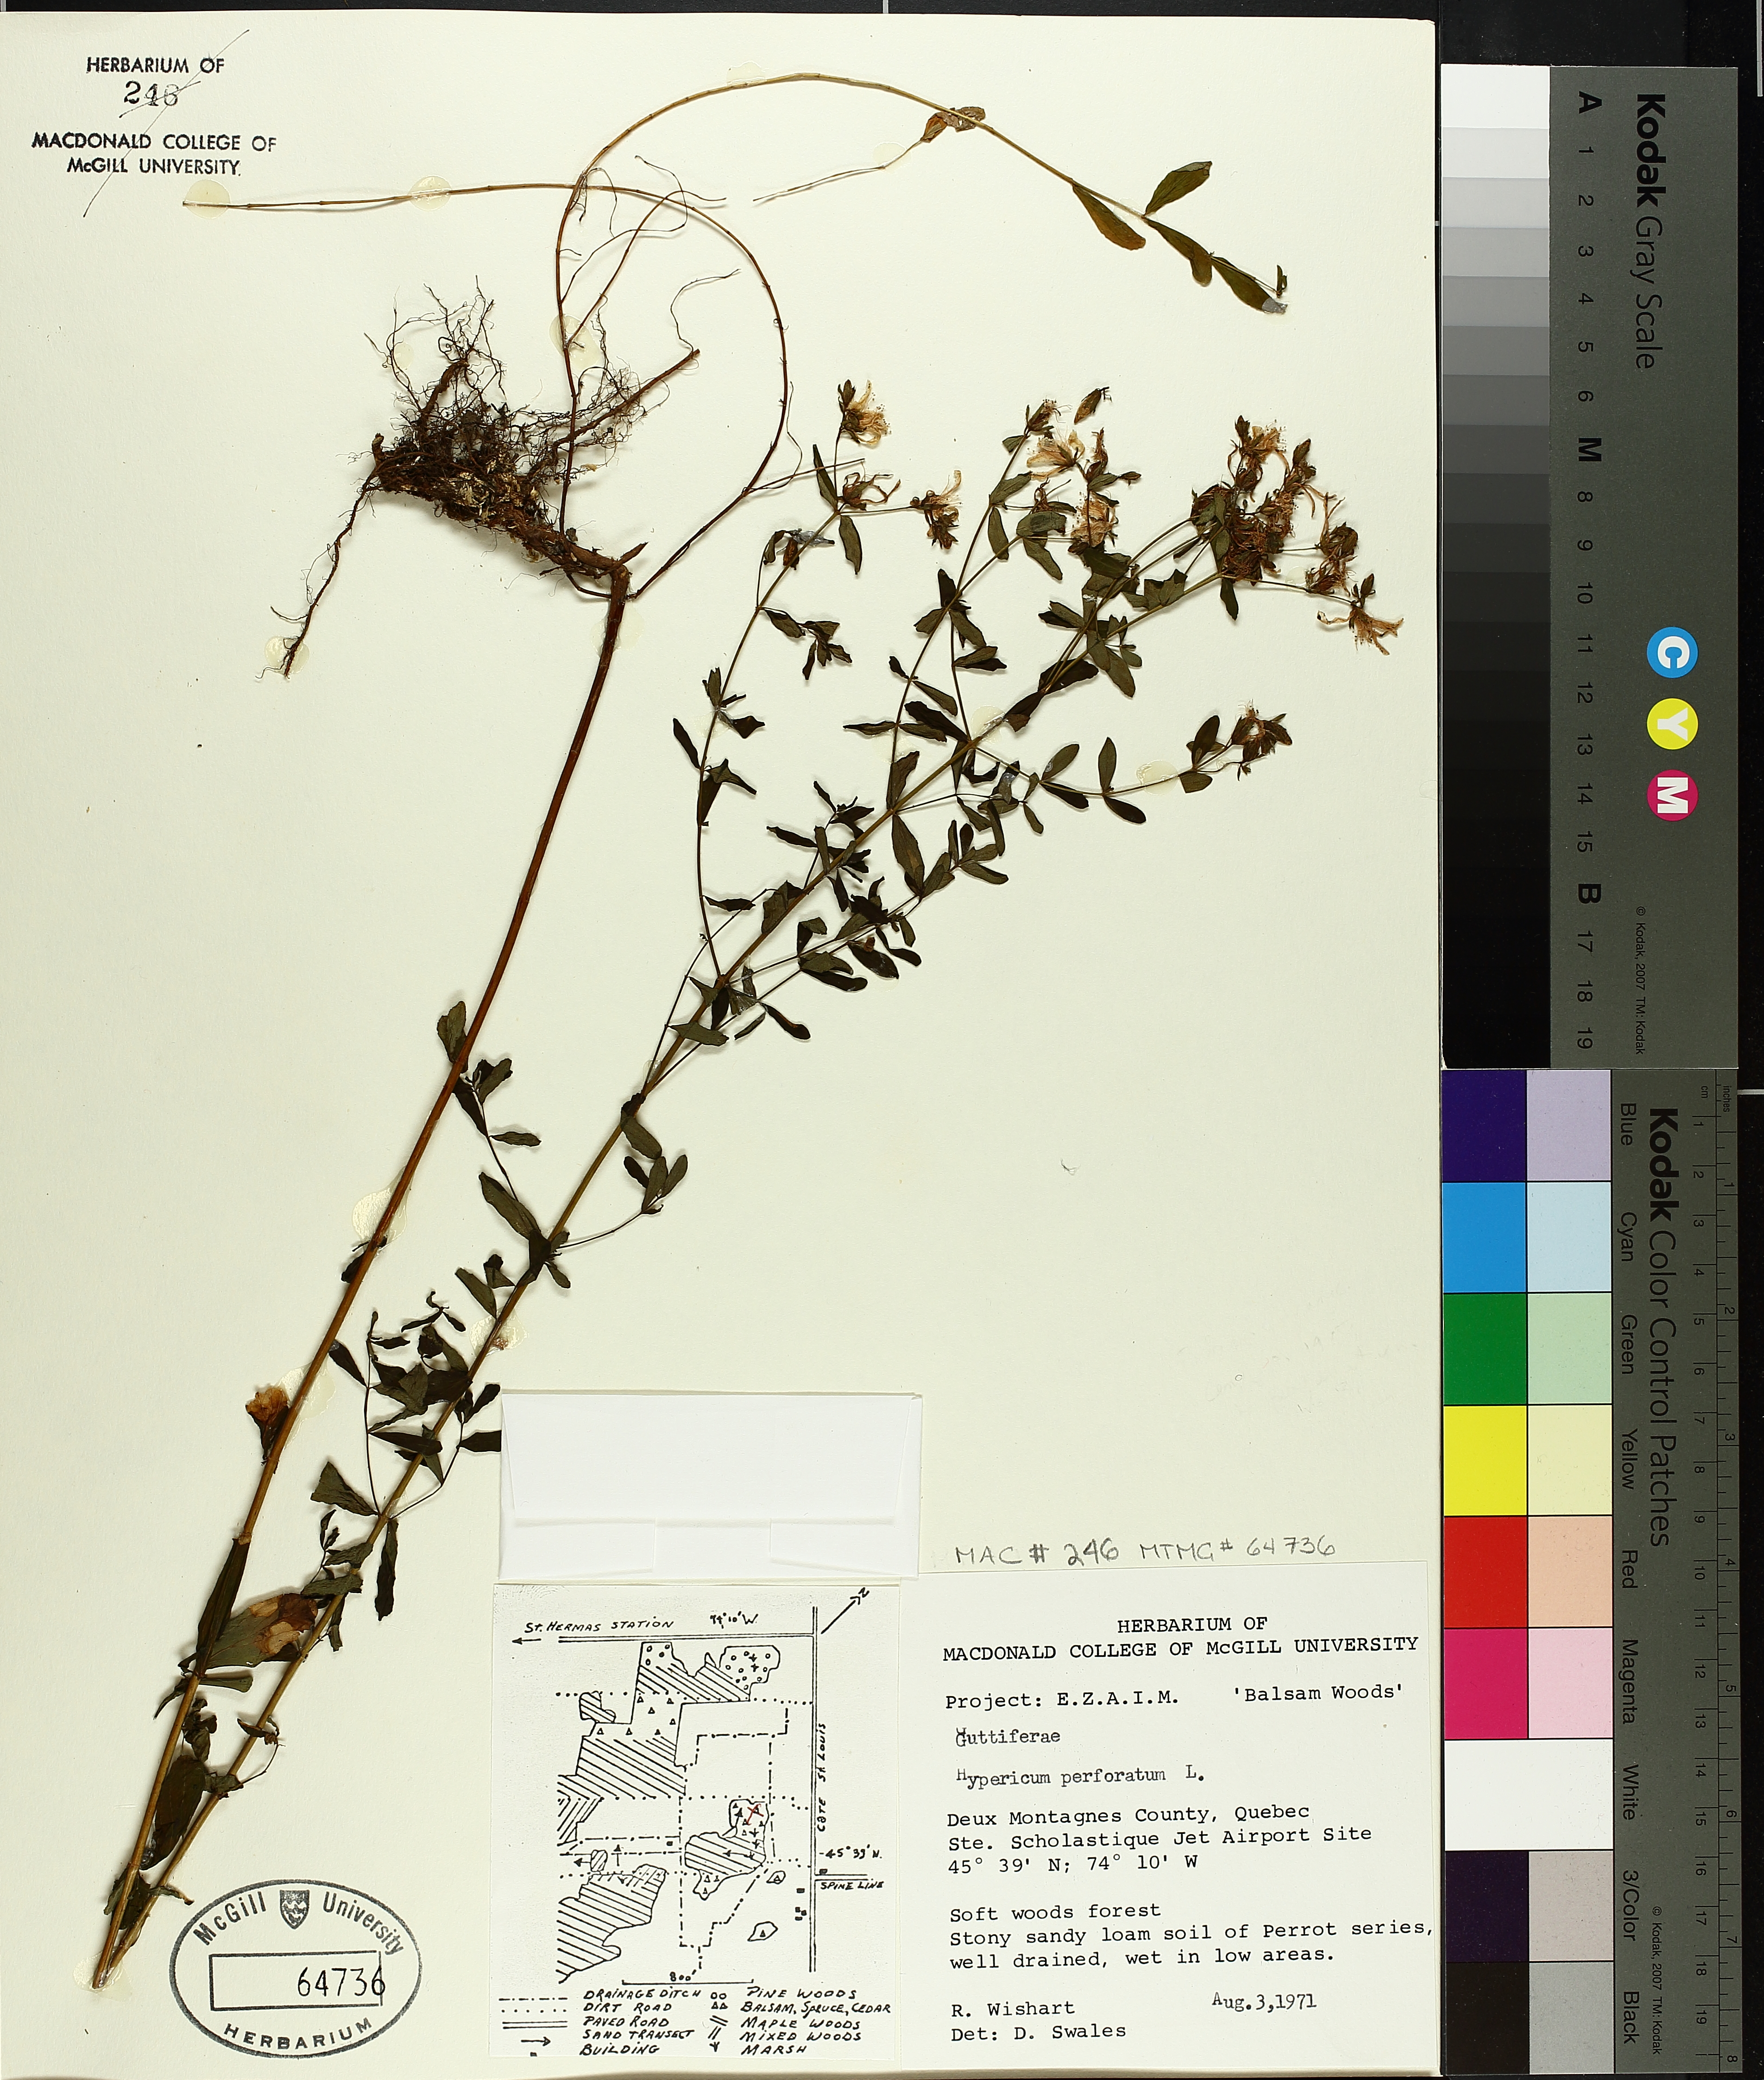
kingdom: Plantae
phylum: Tracheophyta
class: Magnoliopsida
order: Malpighiales
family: Hypericaceae
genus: Hypericum
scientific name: Hypericum perforatum
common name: Common st. johnswort
